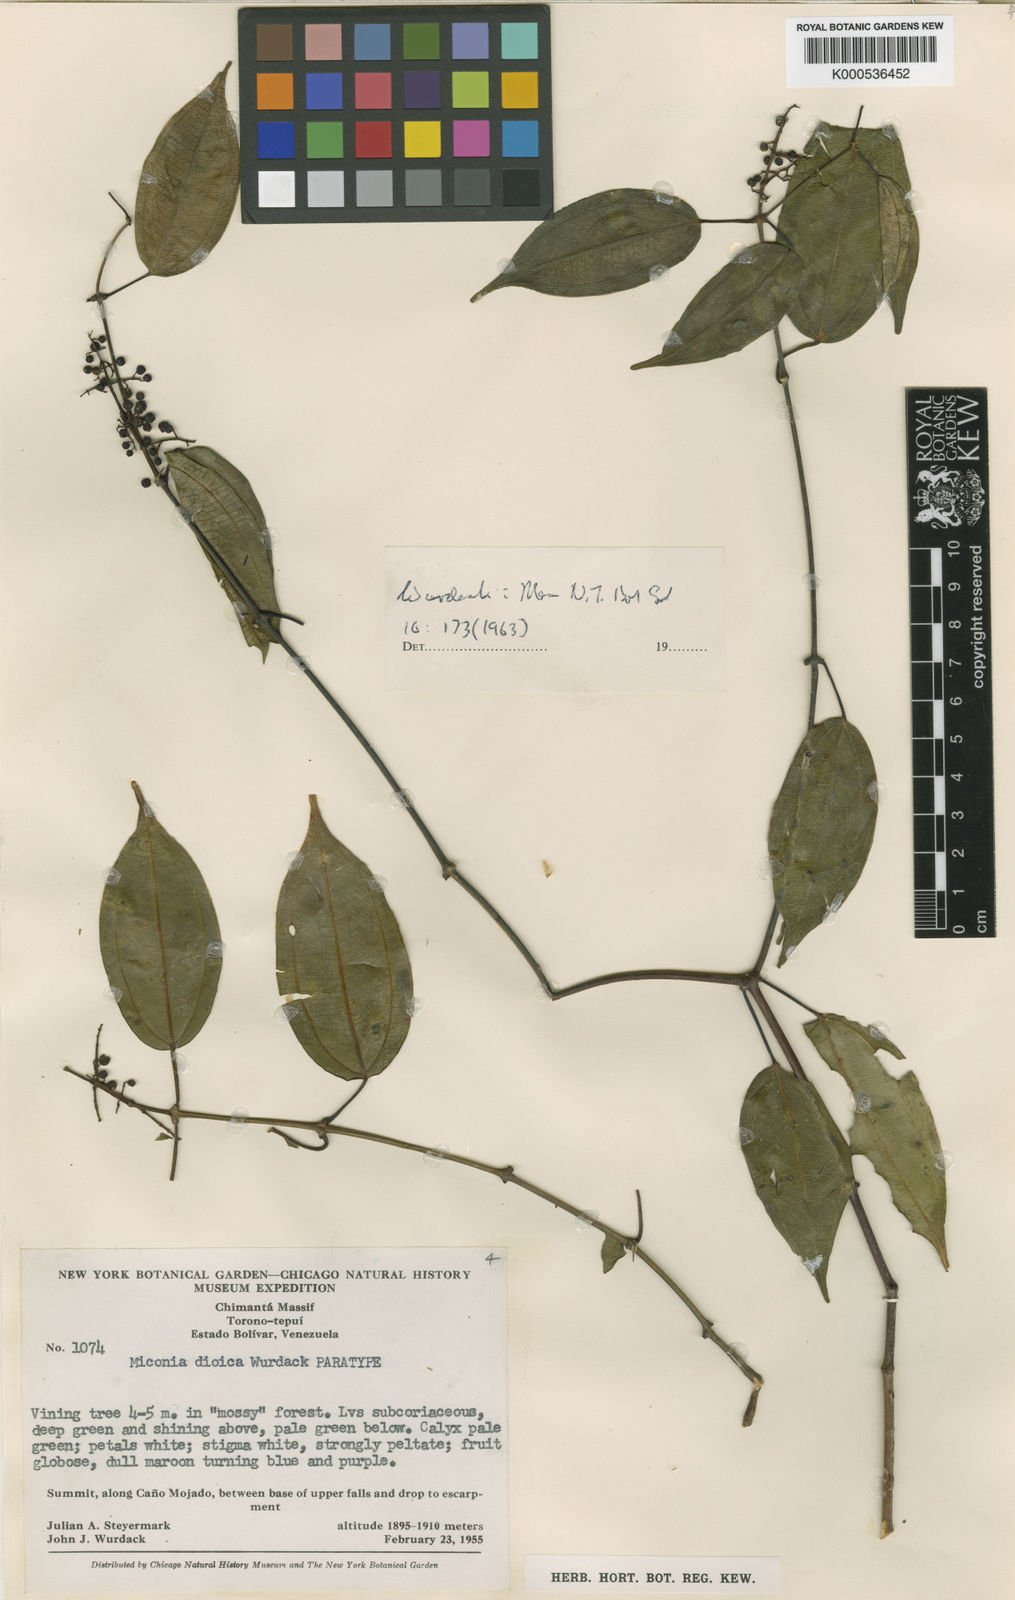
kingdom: Plantae
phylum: Tracheophyta
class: Magnoliopsida
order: Myrtales
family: Melastomataceae
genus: Miconia
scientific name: Miconia dioica
